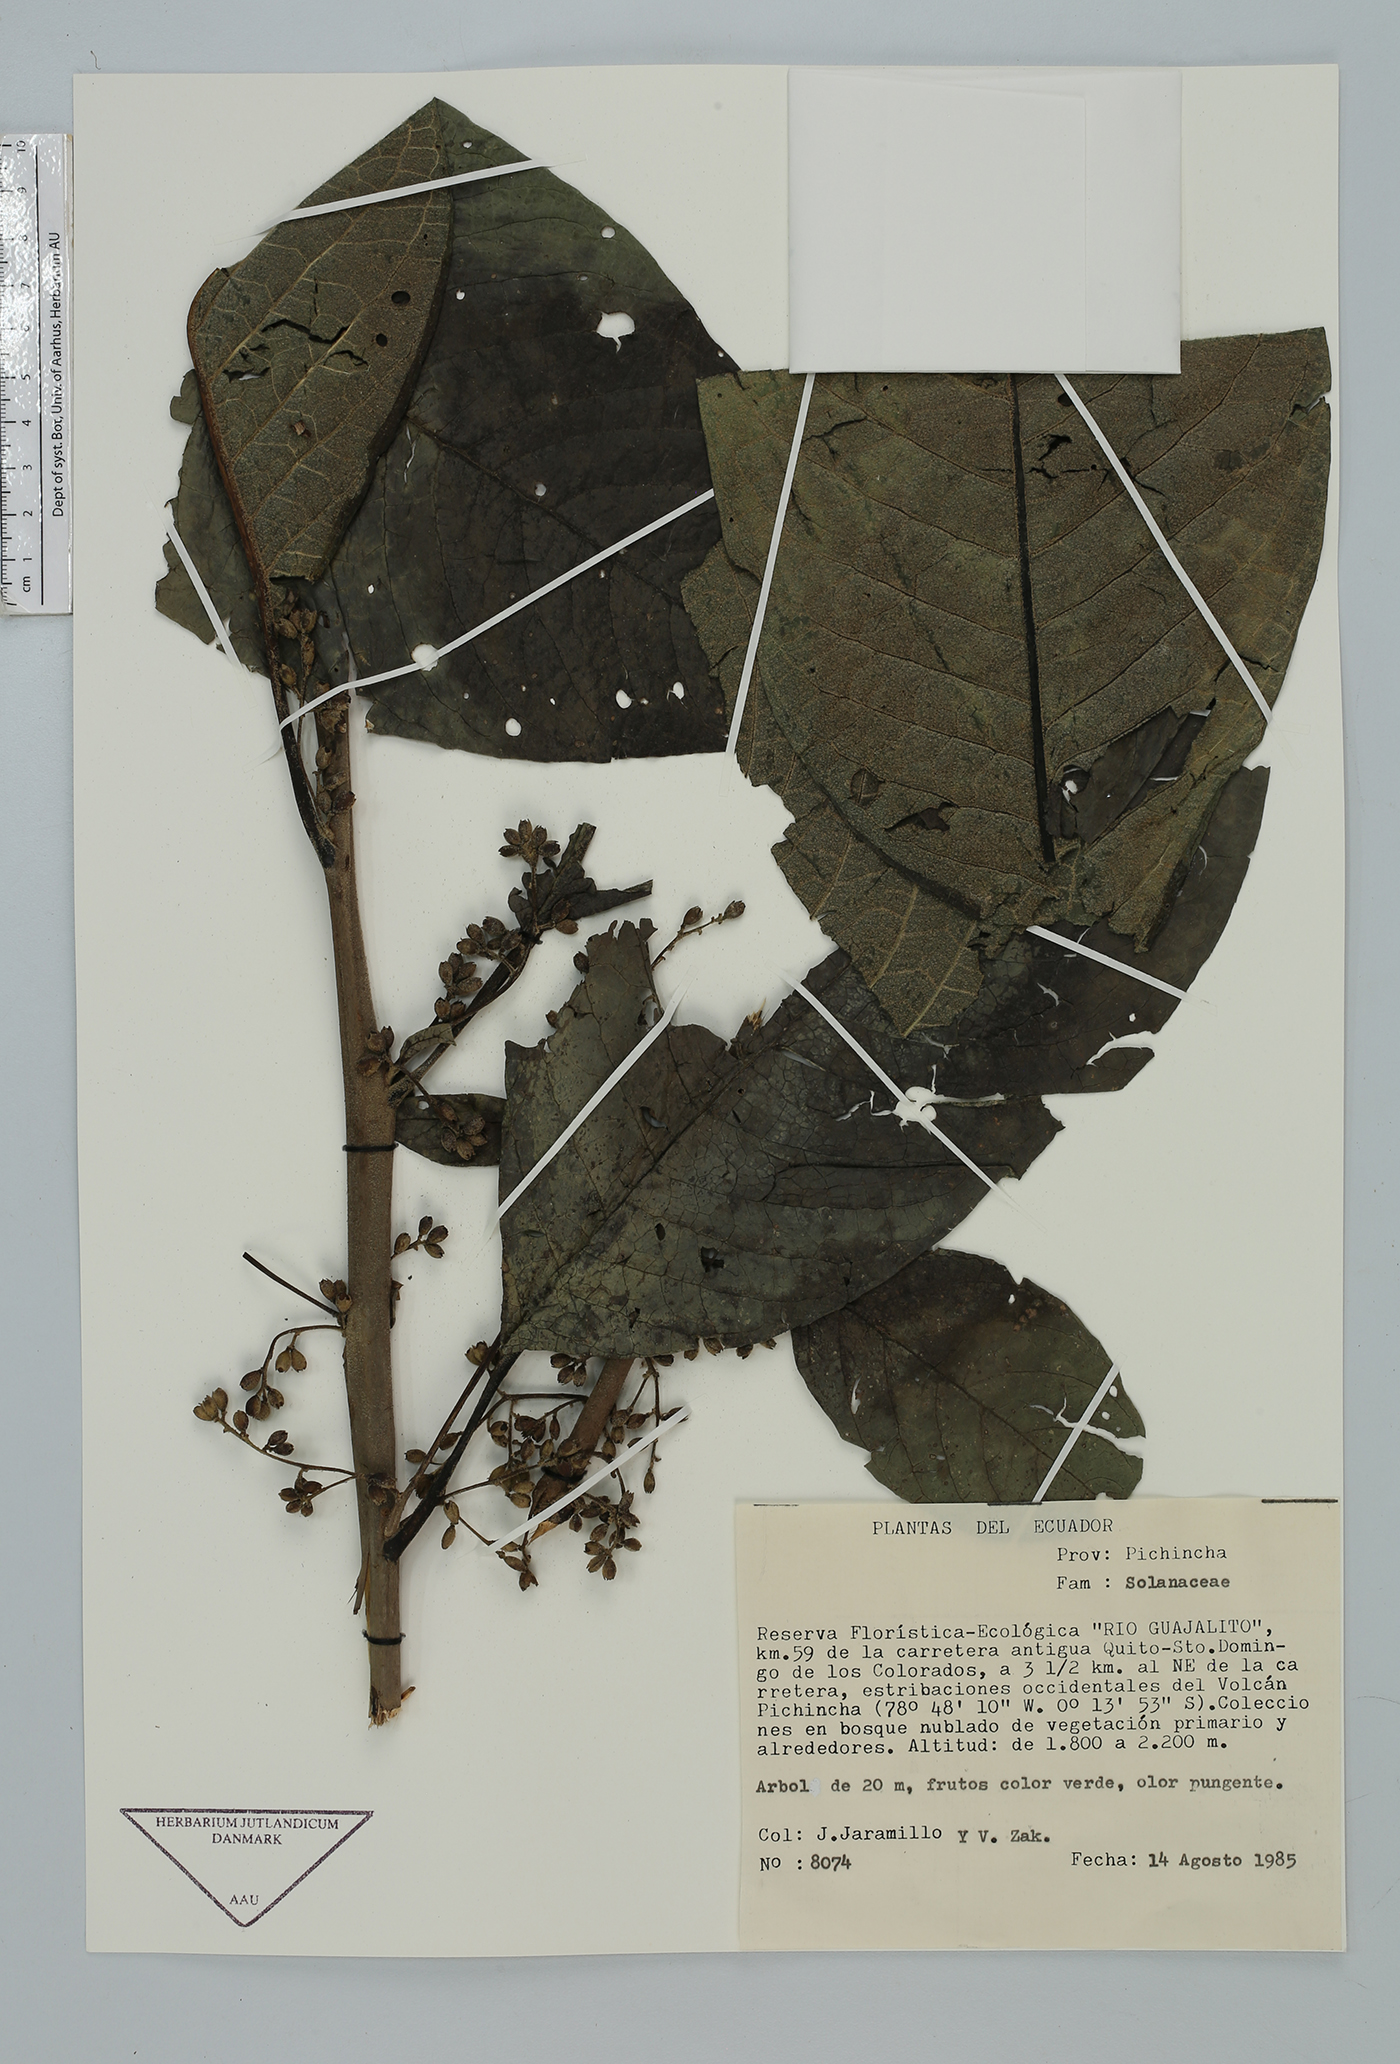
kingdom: Plantae
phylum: Tracheophyta
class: Magnoliopsida
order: Solanales
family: Solanaceae
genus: Cestrum
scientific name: Cestrum
